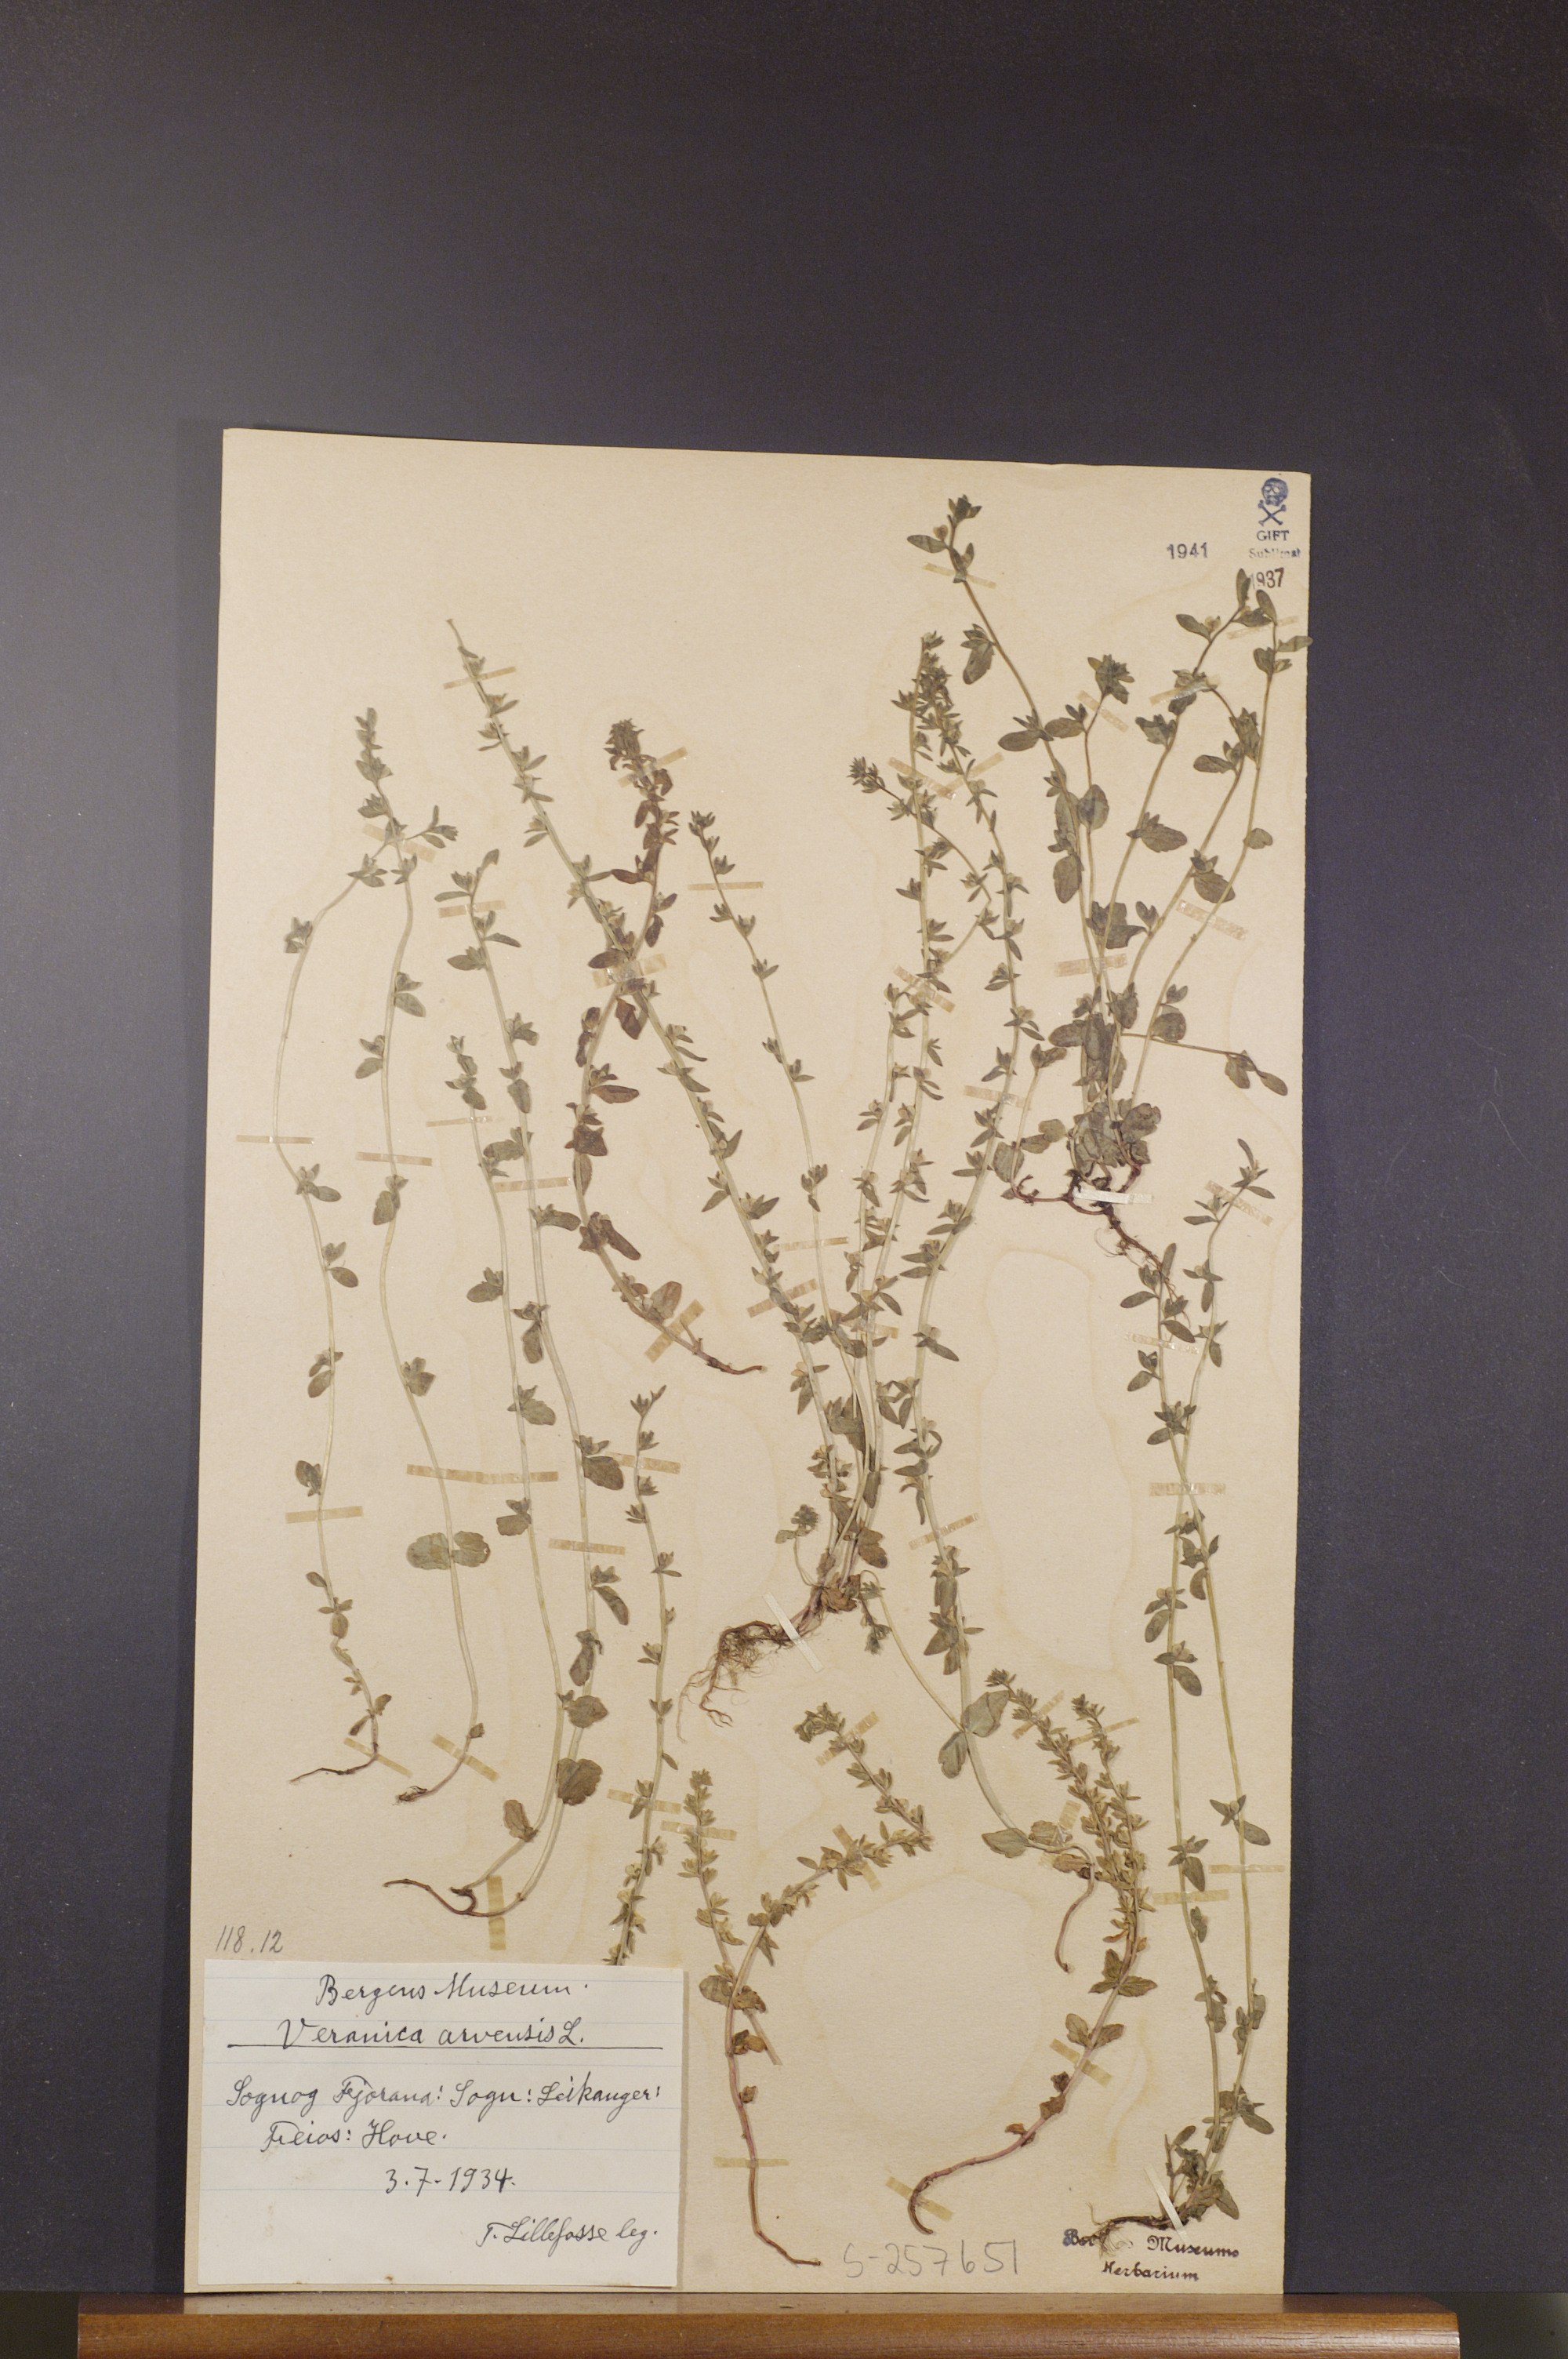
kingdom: Plantae
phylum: Tracheophyta
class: Magnoliopsida
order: Lamiales
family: Plantaginaceae
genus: Veronica
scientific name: Veronica arvensis
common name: Corn speedwell
